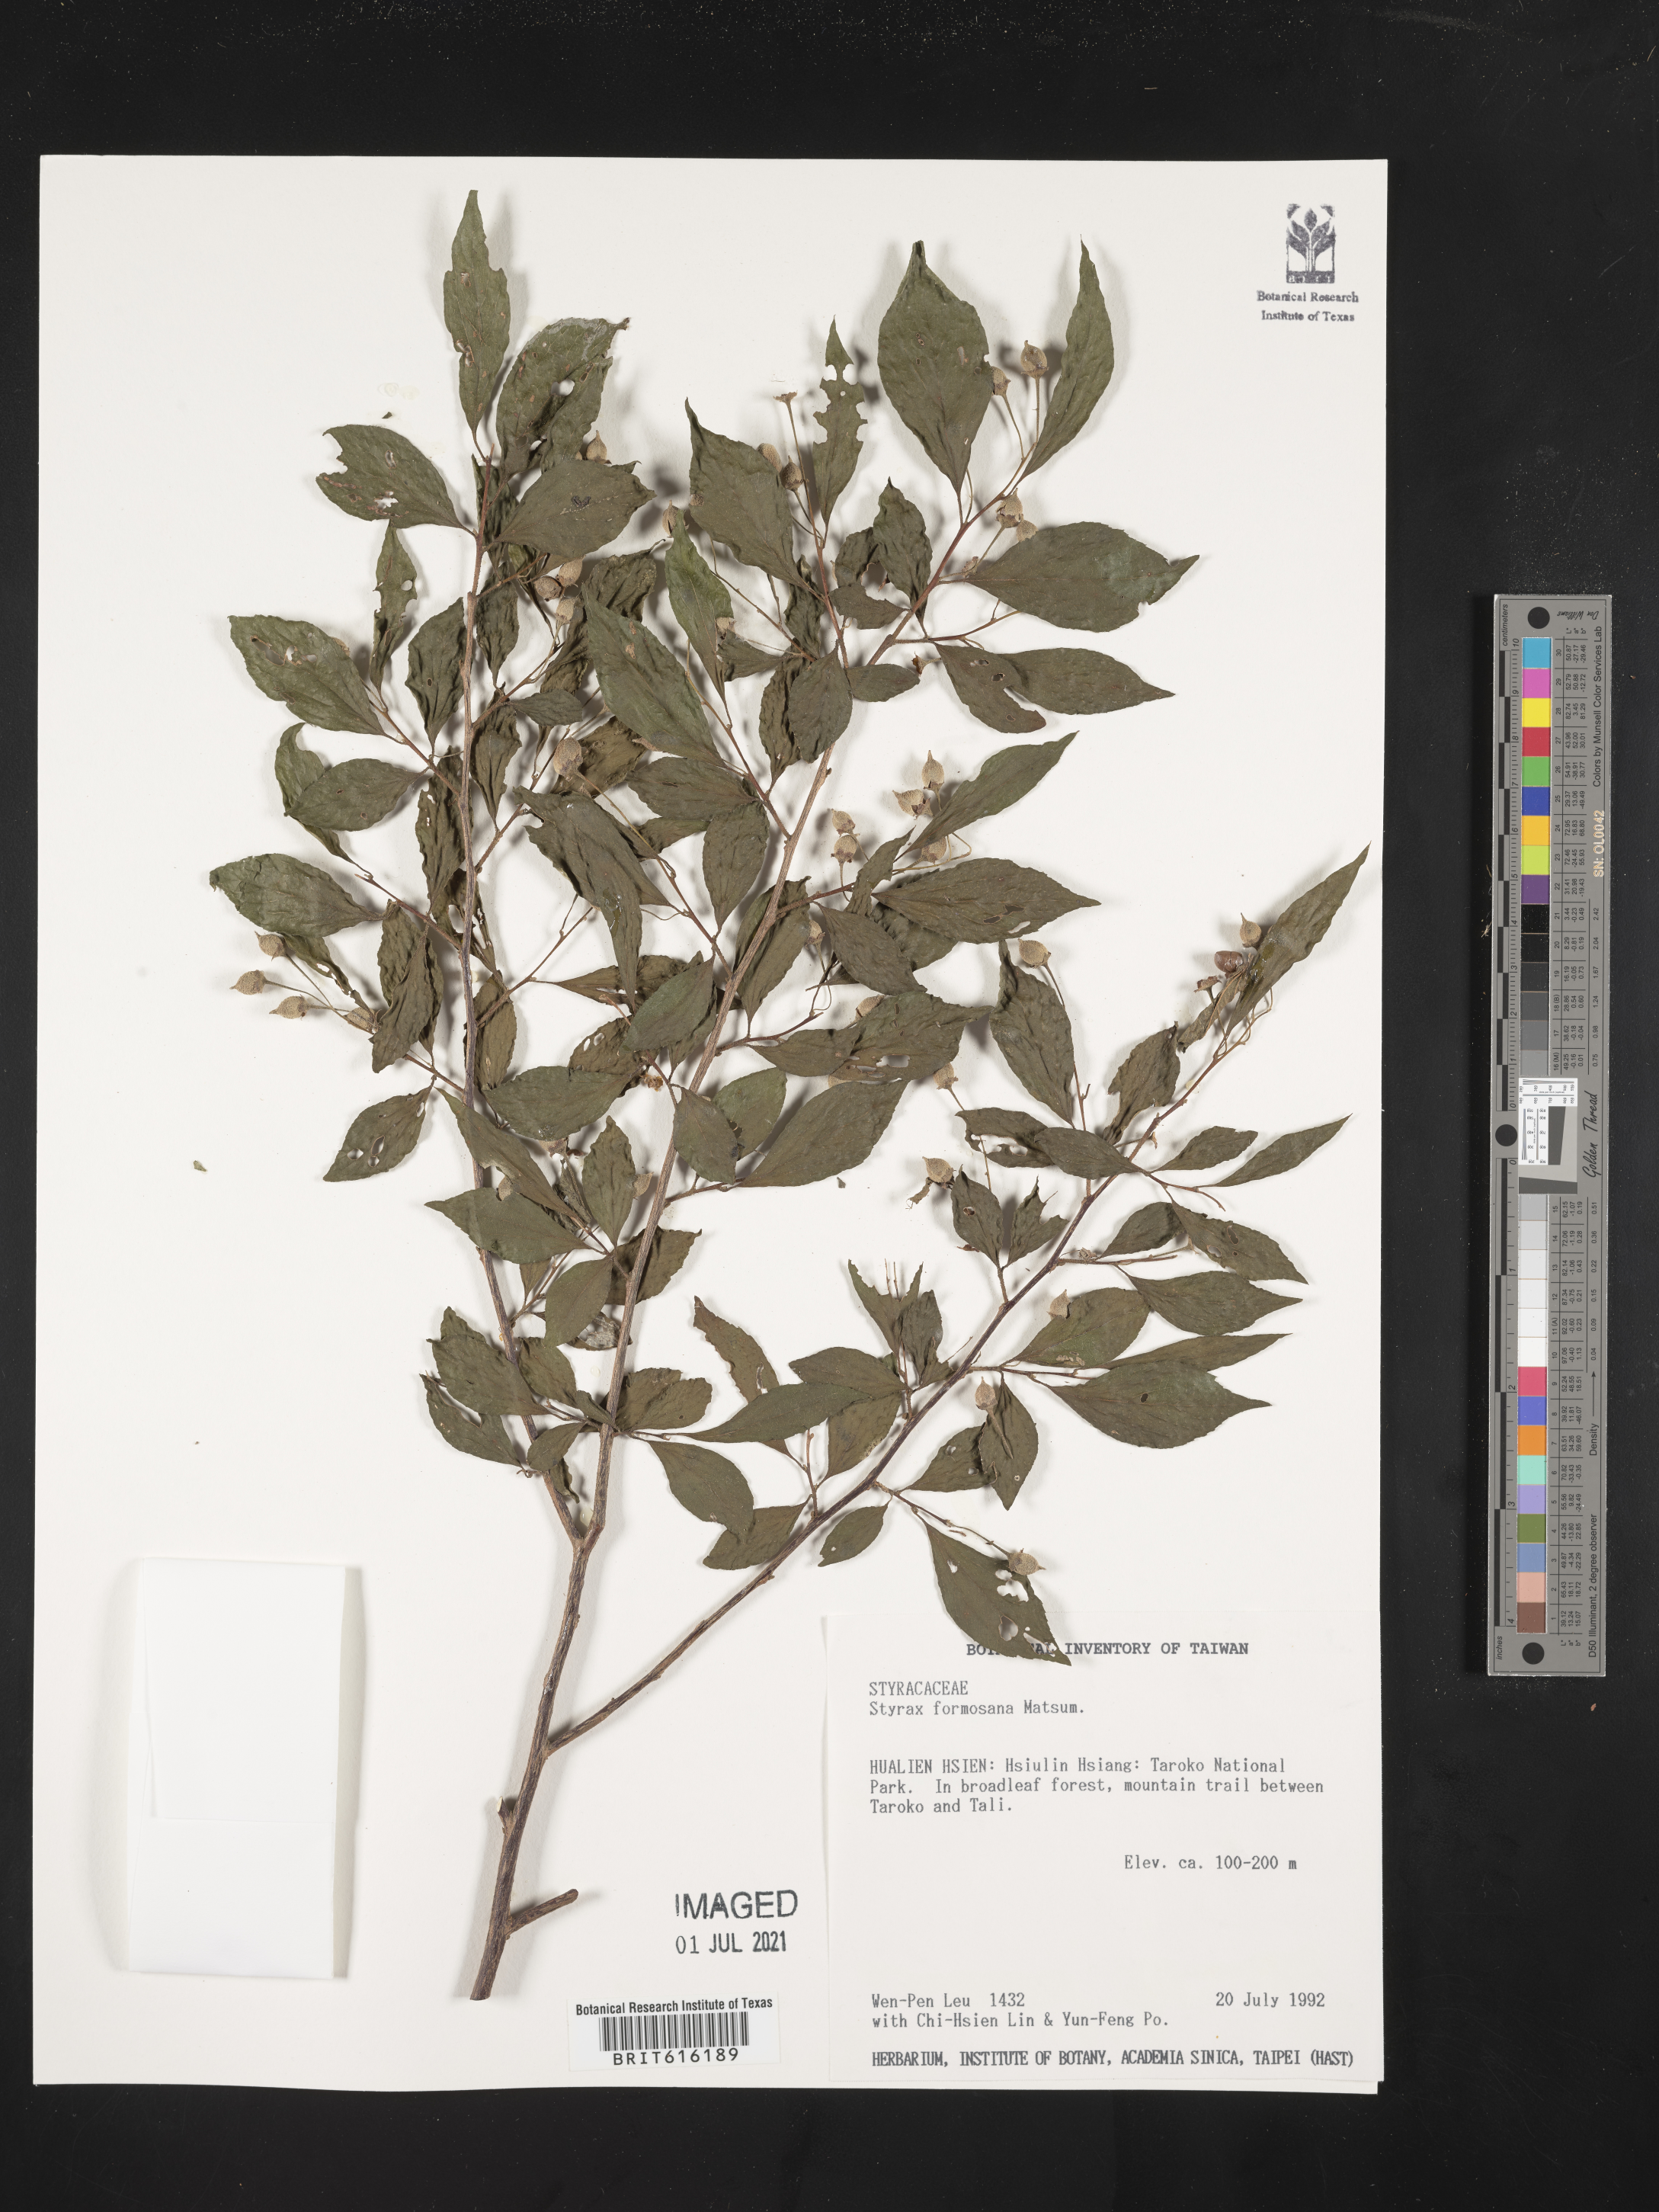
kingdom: Plantae
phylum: Tracheophyta
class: Magnoliopsida
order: Ericales
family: Styracaceae
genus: Styrax
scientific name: Styrax formosanus
